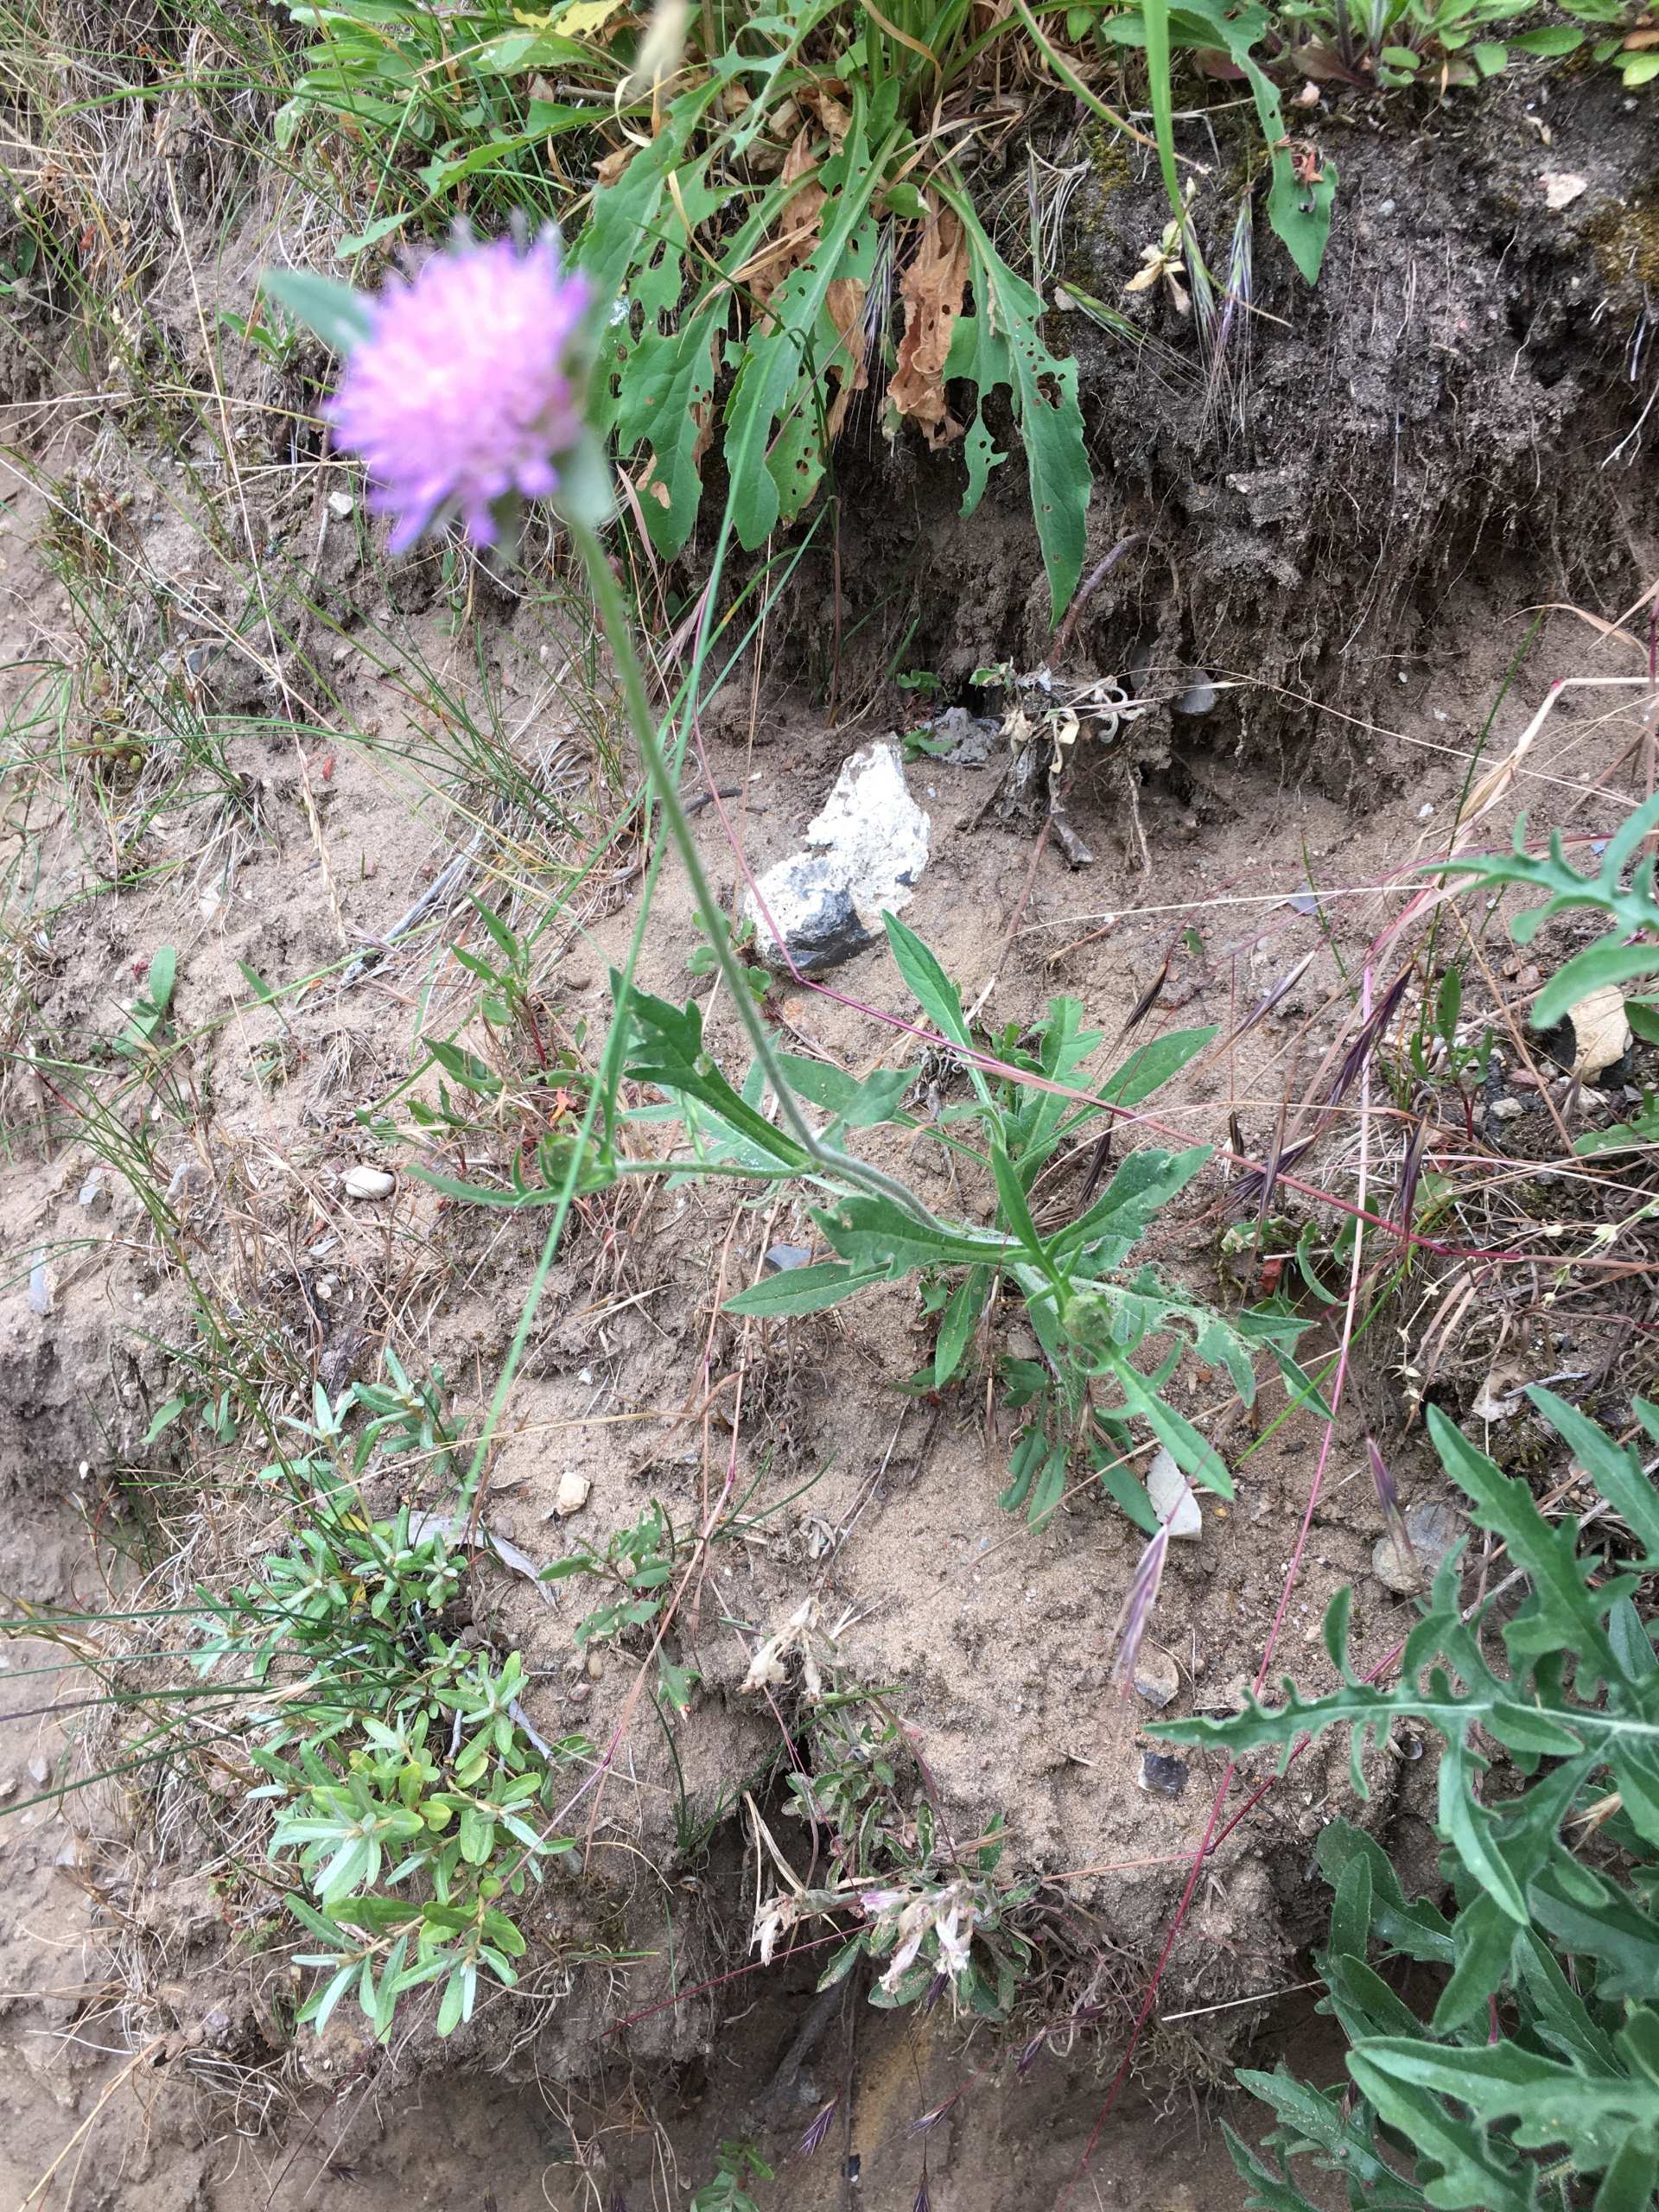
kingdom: Plantae
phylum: Tracheophyta
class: Magnoliopsida
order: Dipsacales
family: Caprifoliaceae
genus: Knautia
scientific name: Knautia arvensis
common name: Blåhat
